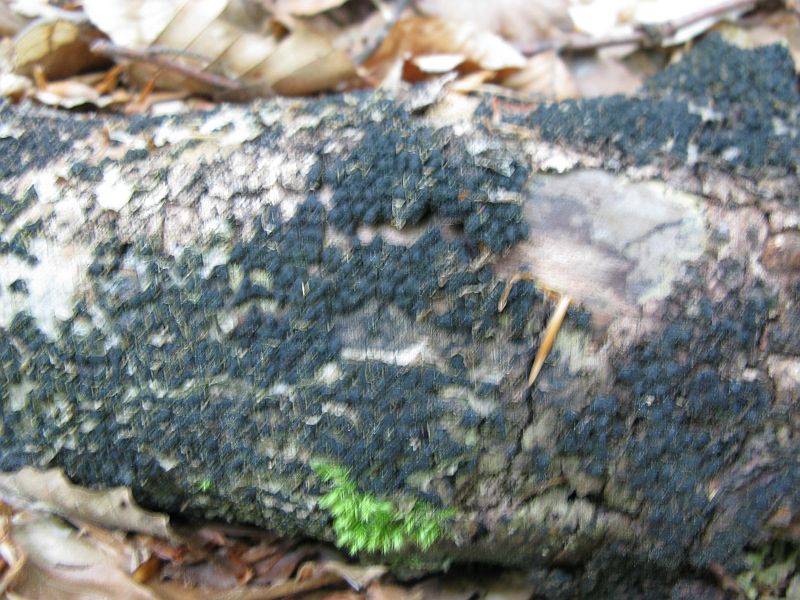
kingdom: Fungi
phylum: Ascomycota
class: Sordariomycetes
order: Xylariales
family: Melogrammataceae
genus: Melogramma
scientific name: Melogramma spiniferum
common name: bøgefod-kulhals
